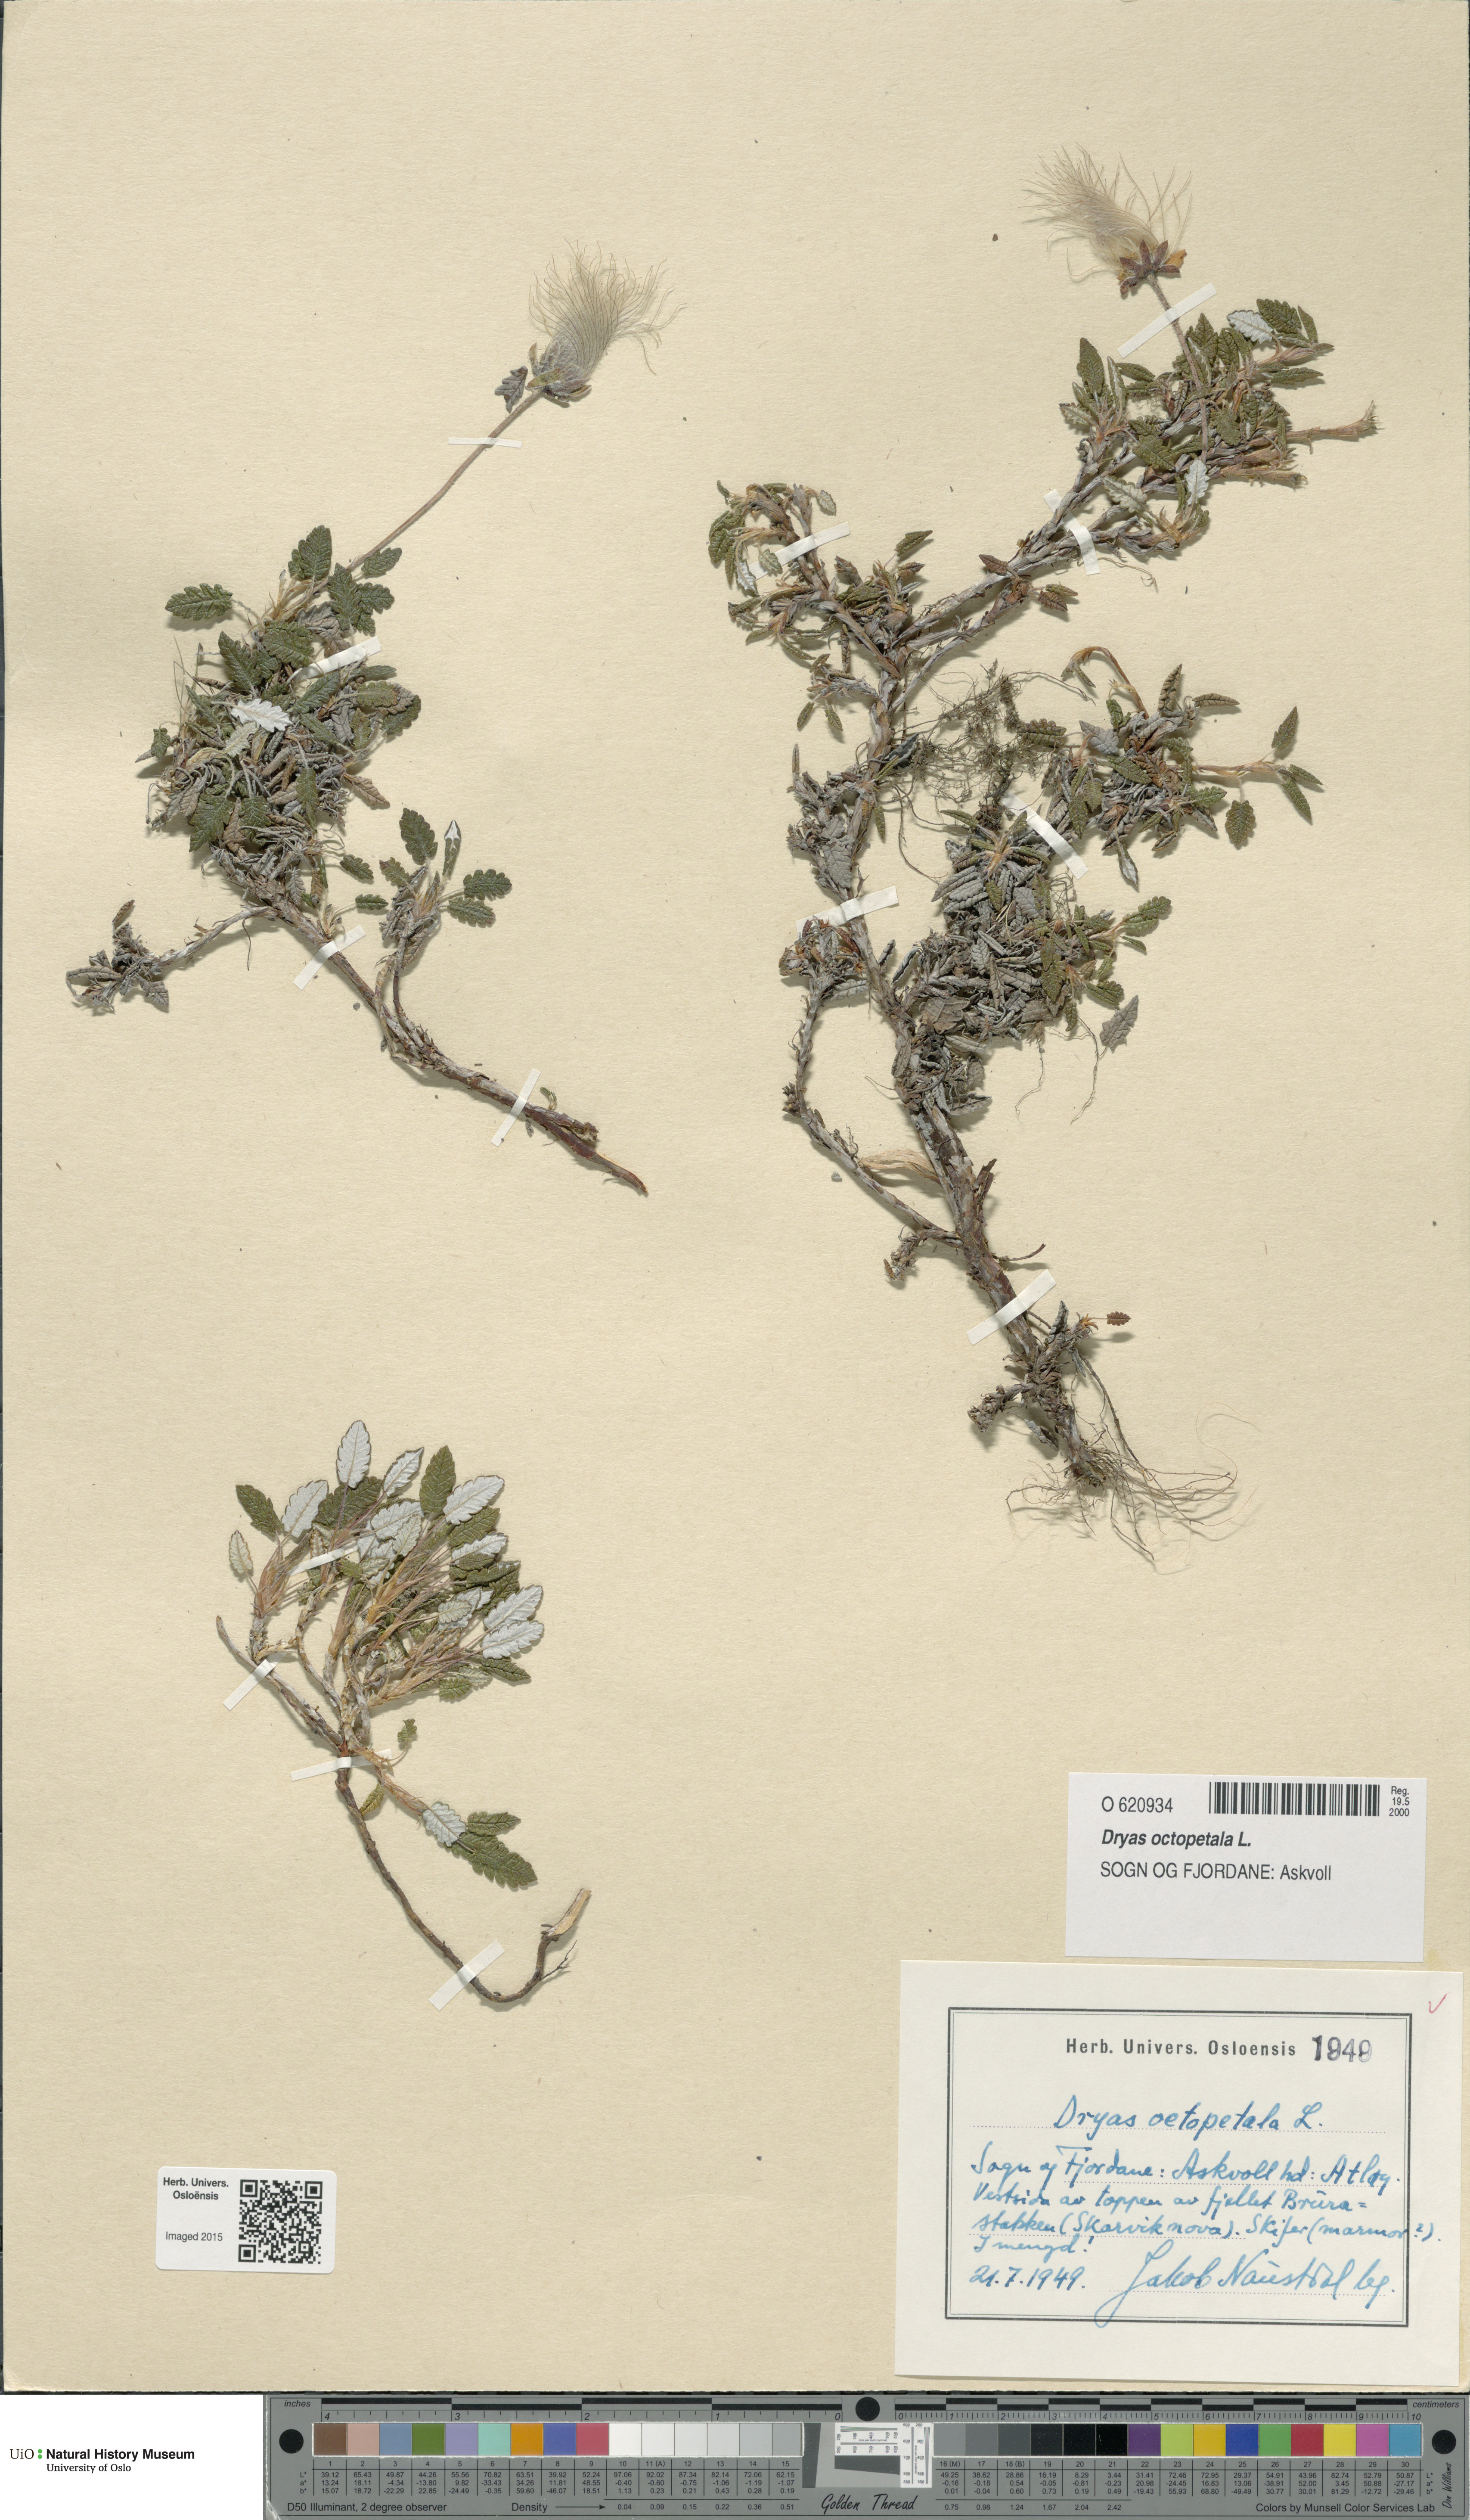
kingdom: Plantae
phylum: Tracheophyta
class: Magnoliopsida
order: Rosales
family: Rosaceae
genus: Dryas
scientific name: Dryas octopetala
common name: Eight-petal mountain-avens
